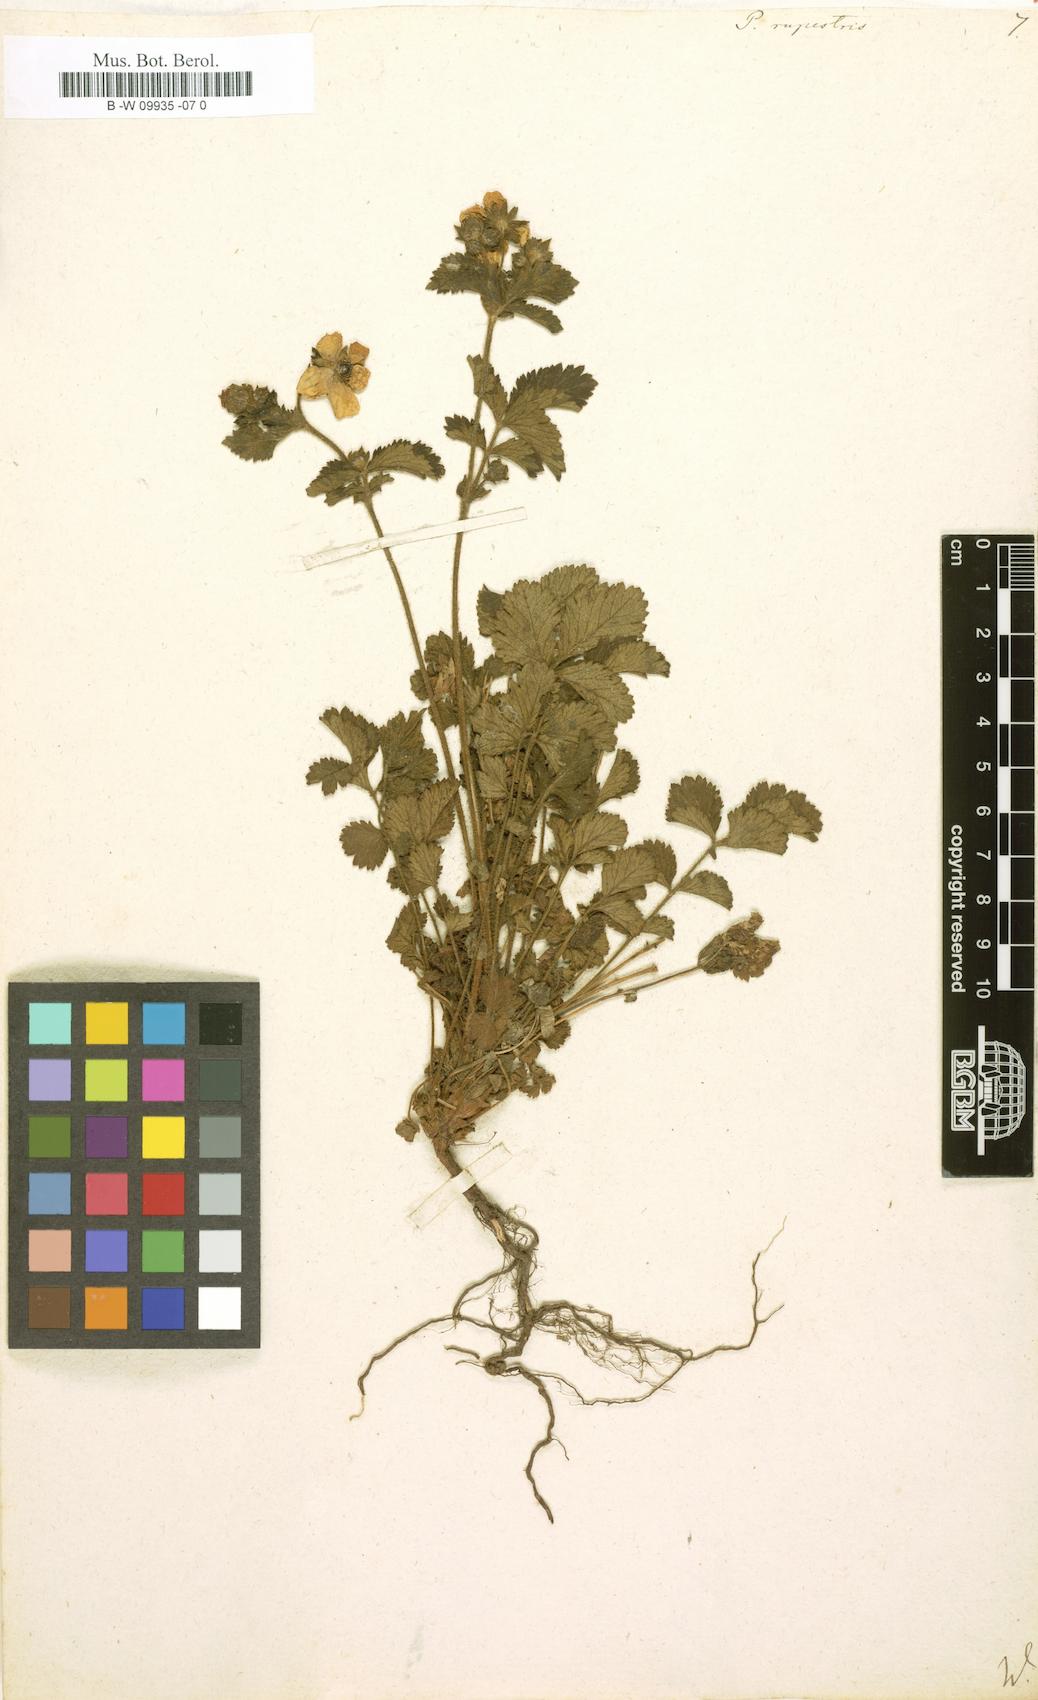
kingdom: Plantae
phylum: Tracheophyta
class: Magnoliopsida
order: Rosales
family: Rosaceae
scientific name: Rosaceae
